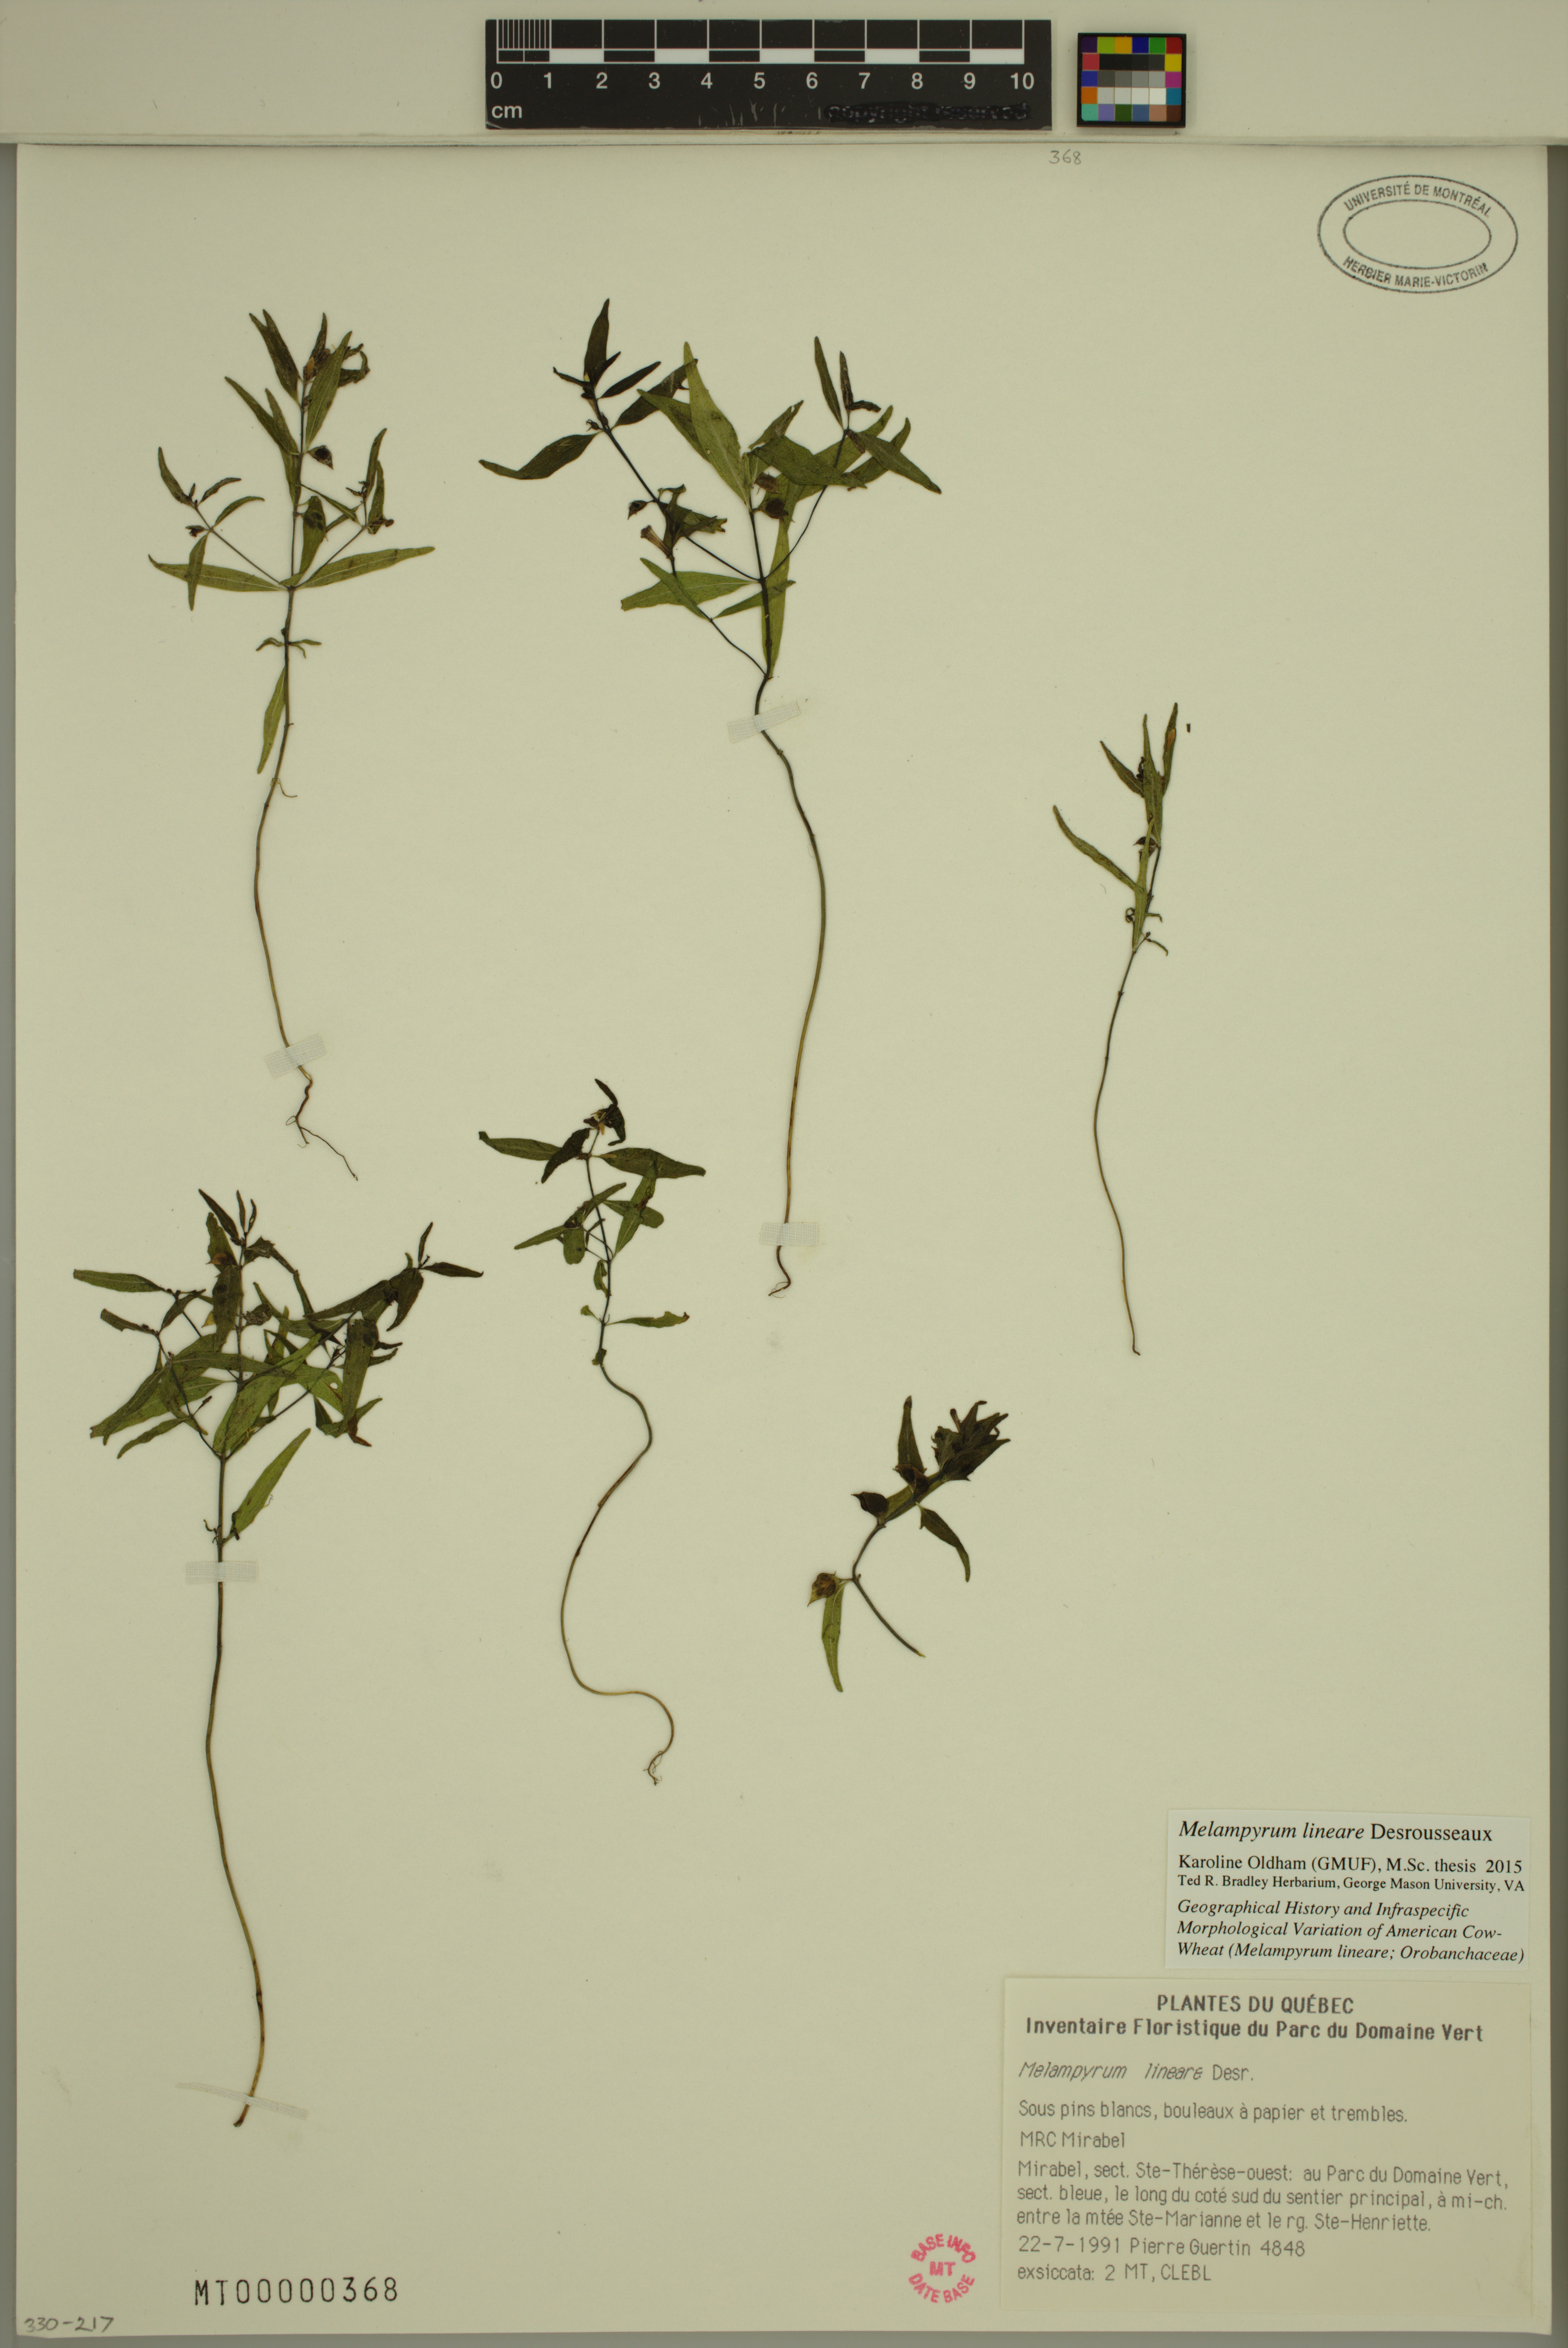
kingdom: Plantae
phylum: Tracheophyta
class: Magnoliopsida
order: Lamiales
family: Orobanchaceae
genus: Melampyrum
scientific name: Melampyrum lineare
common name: American cow-wheat
